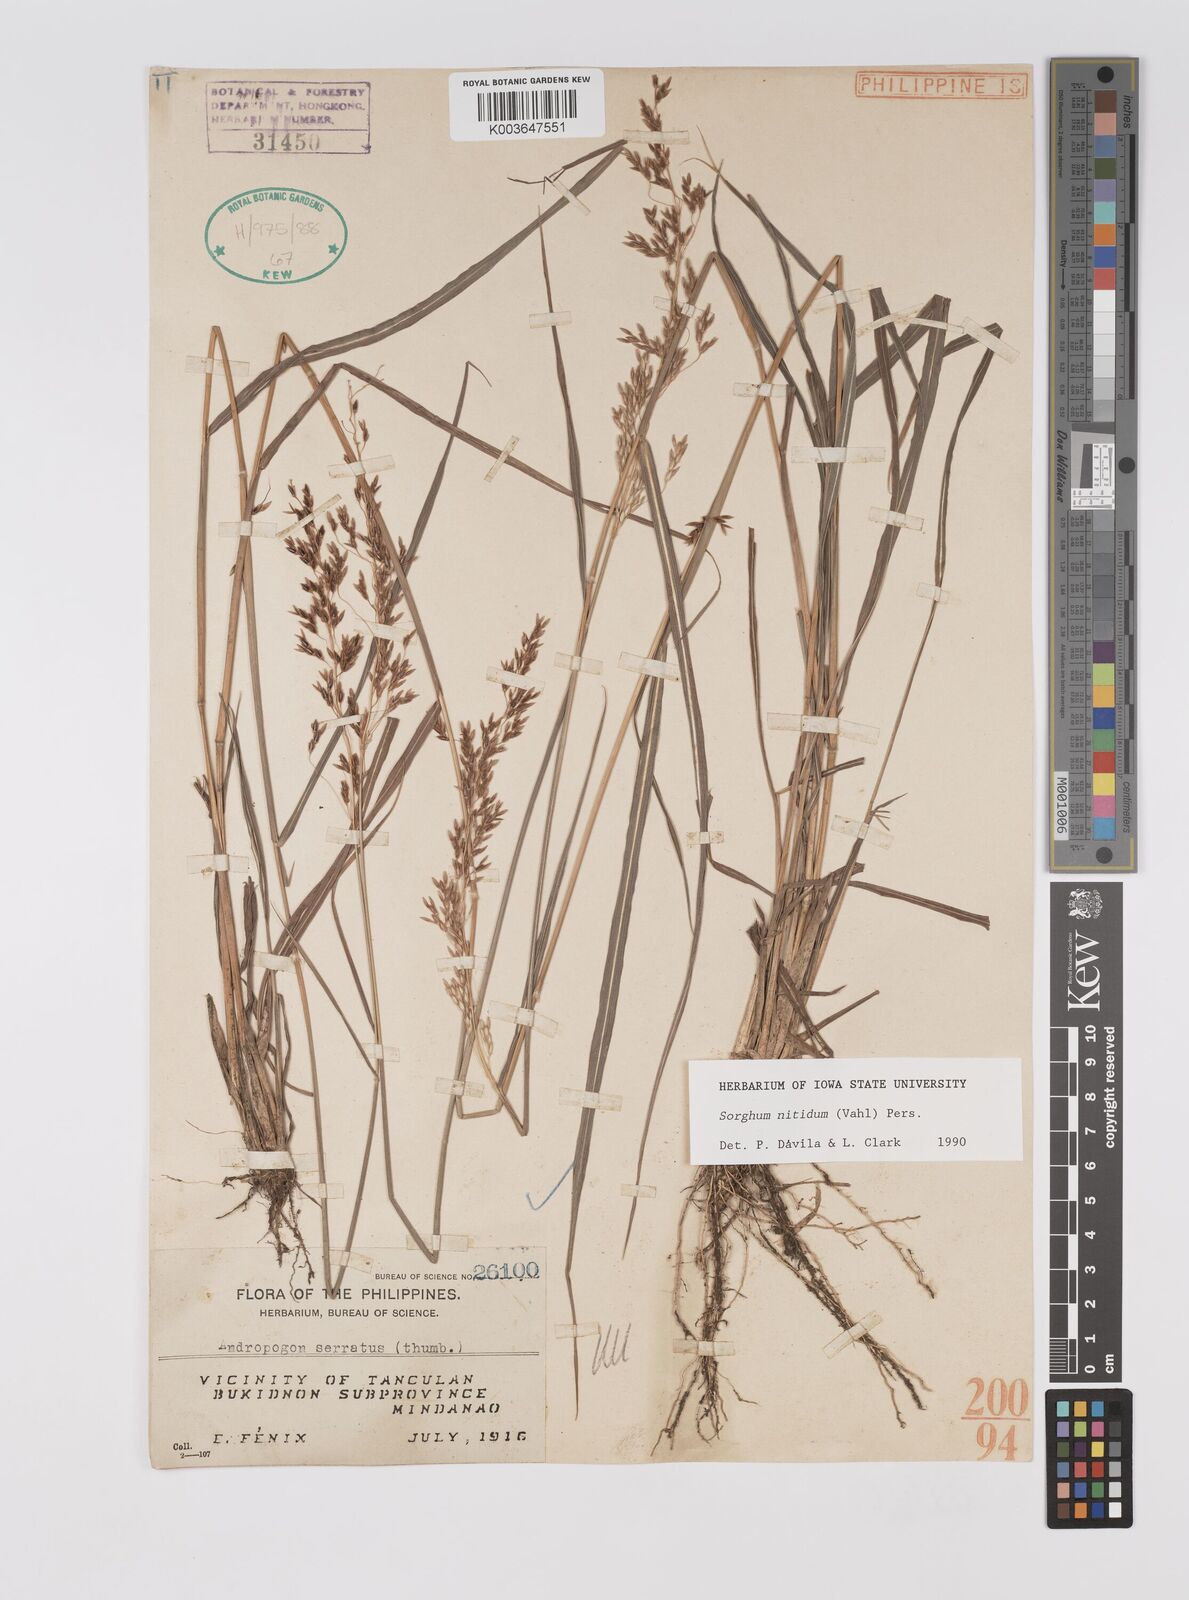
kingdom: Plantae
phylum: Tracheophyta
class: Liliopsida
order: Poales
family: Poaceae
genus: Sorghum
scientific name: Sorghum nitidum
